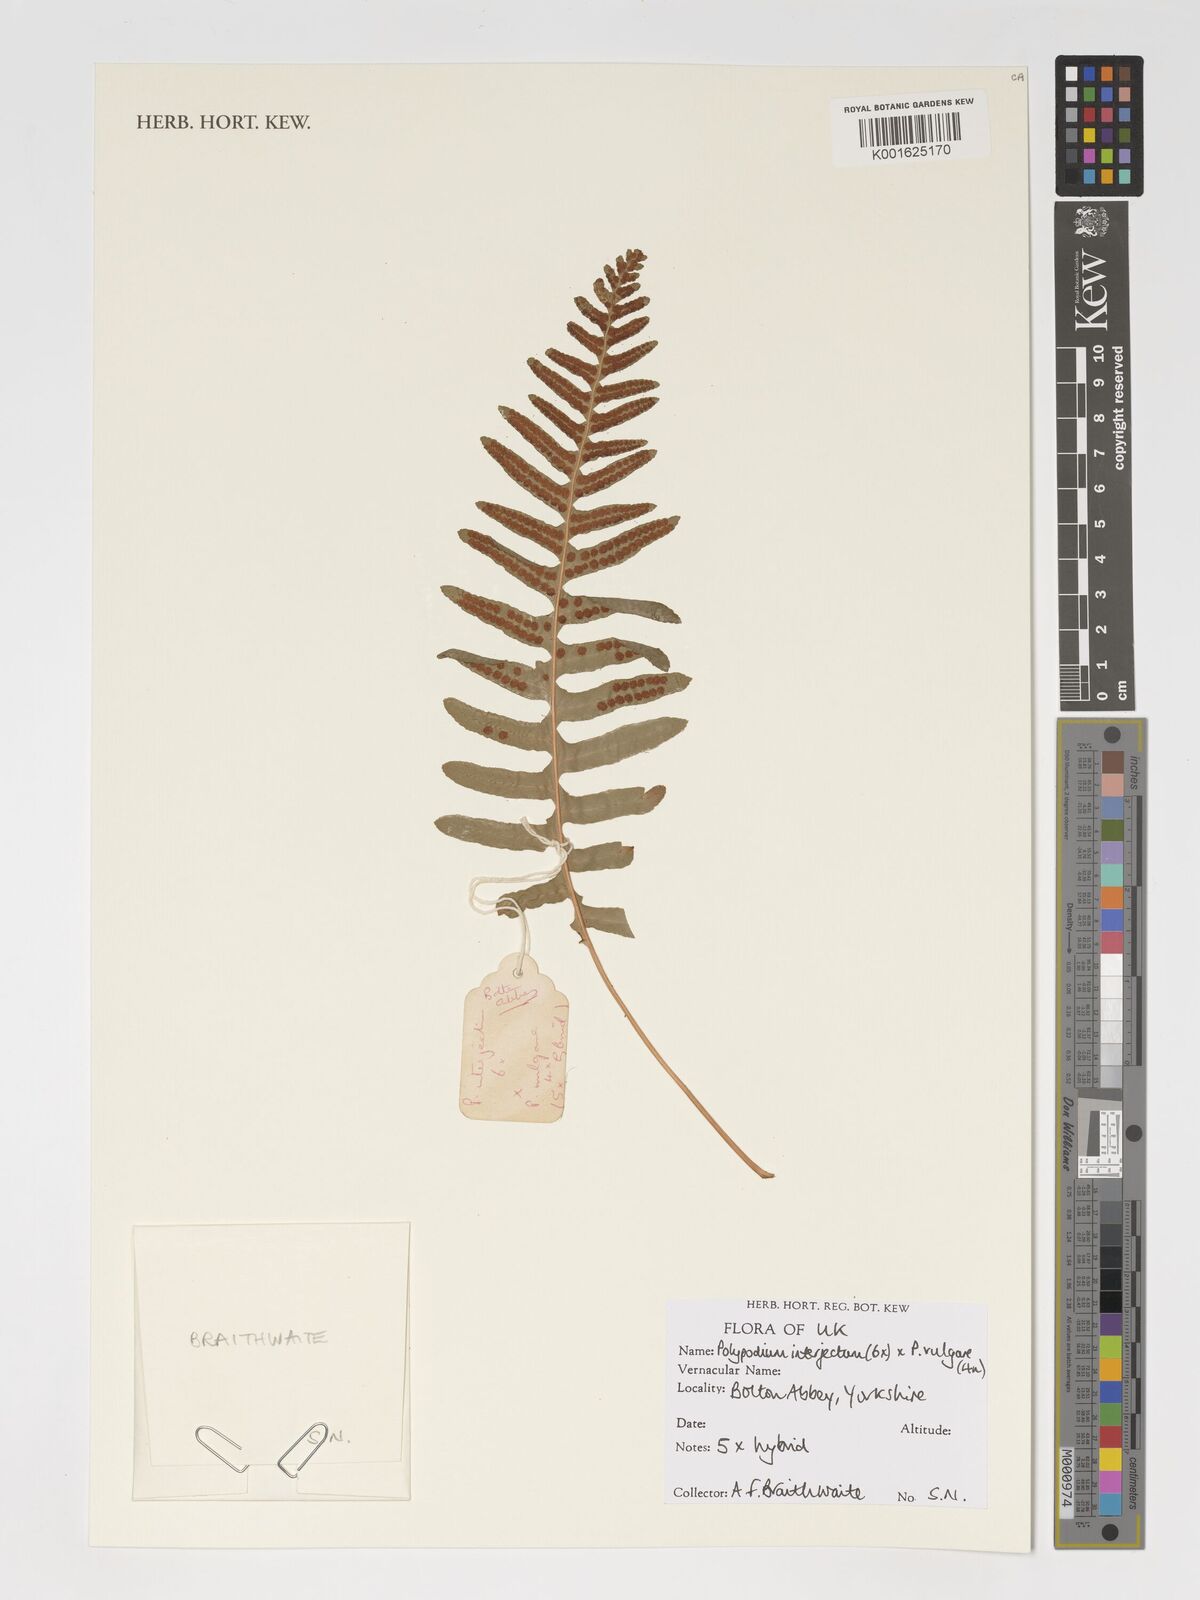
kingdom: Plantae
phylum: Tracheophyta
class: Polypodiopsida
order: Polypodiales
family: Polypodiaceae
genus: Polypodium
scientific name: Polypodium interjectum
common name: Intermediate polypody
